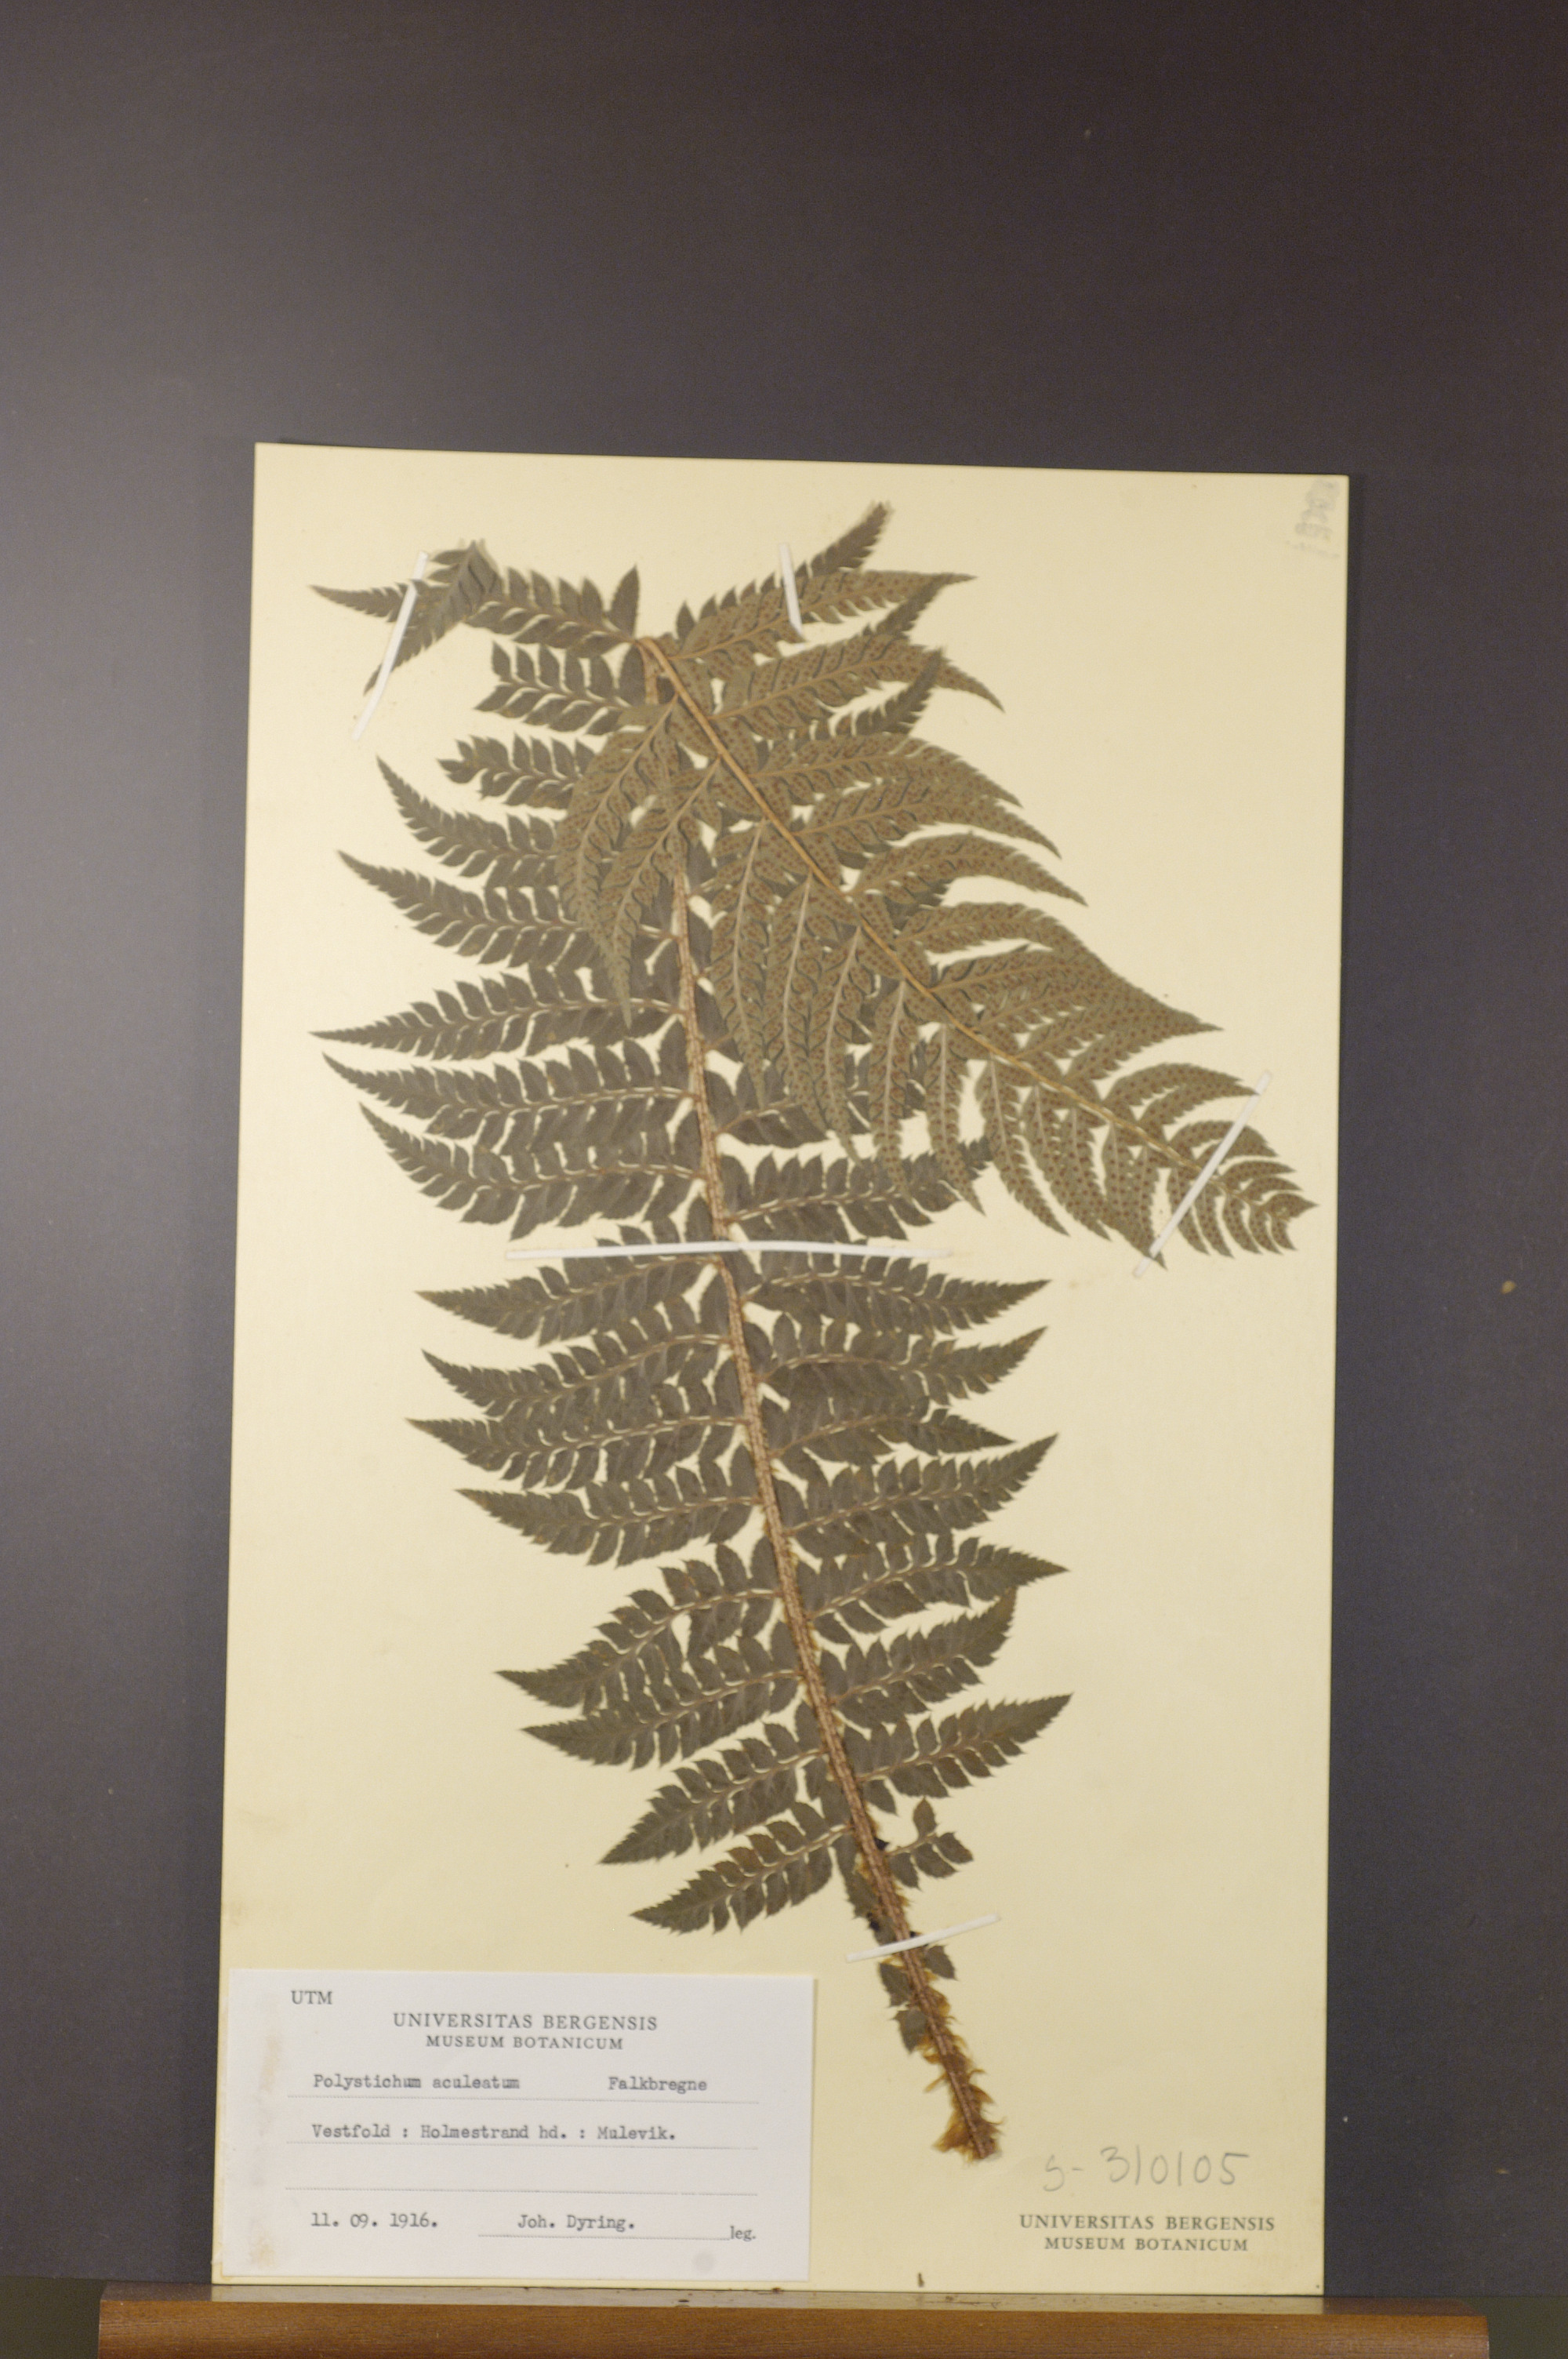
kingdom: Plantae
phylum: Tracheophyta
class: Polypodiopsida
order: Polypodiales
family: Dryopteridaceae
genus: Polystichum
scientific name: Polystichum aculeatum
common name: Hard shield-fern
